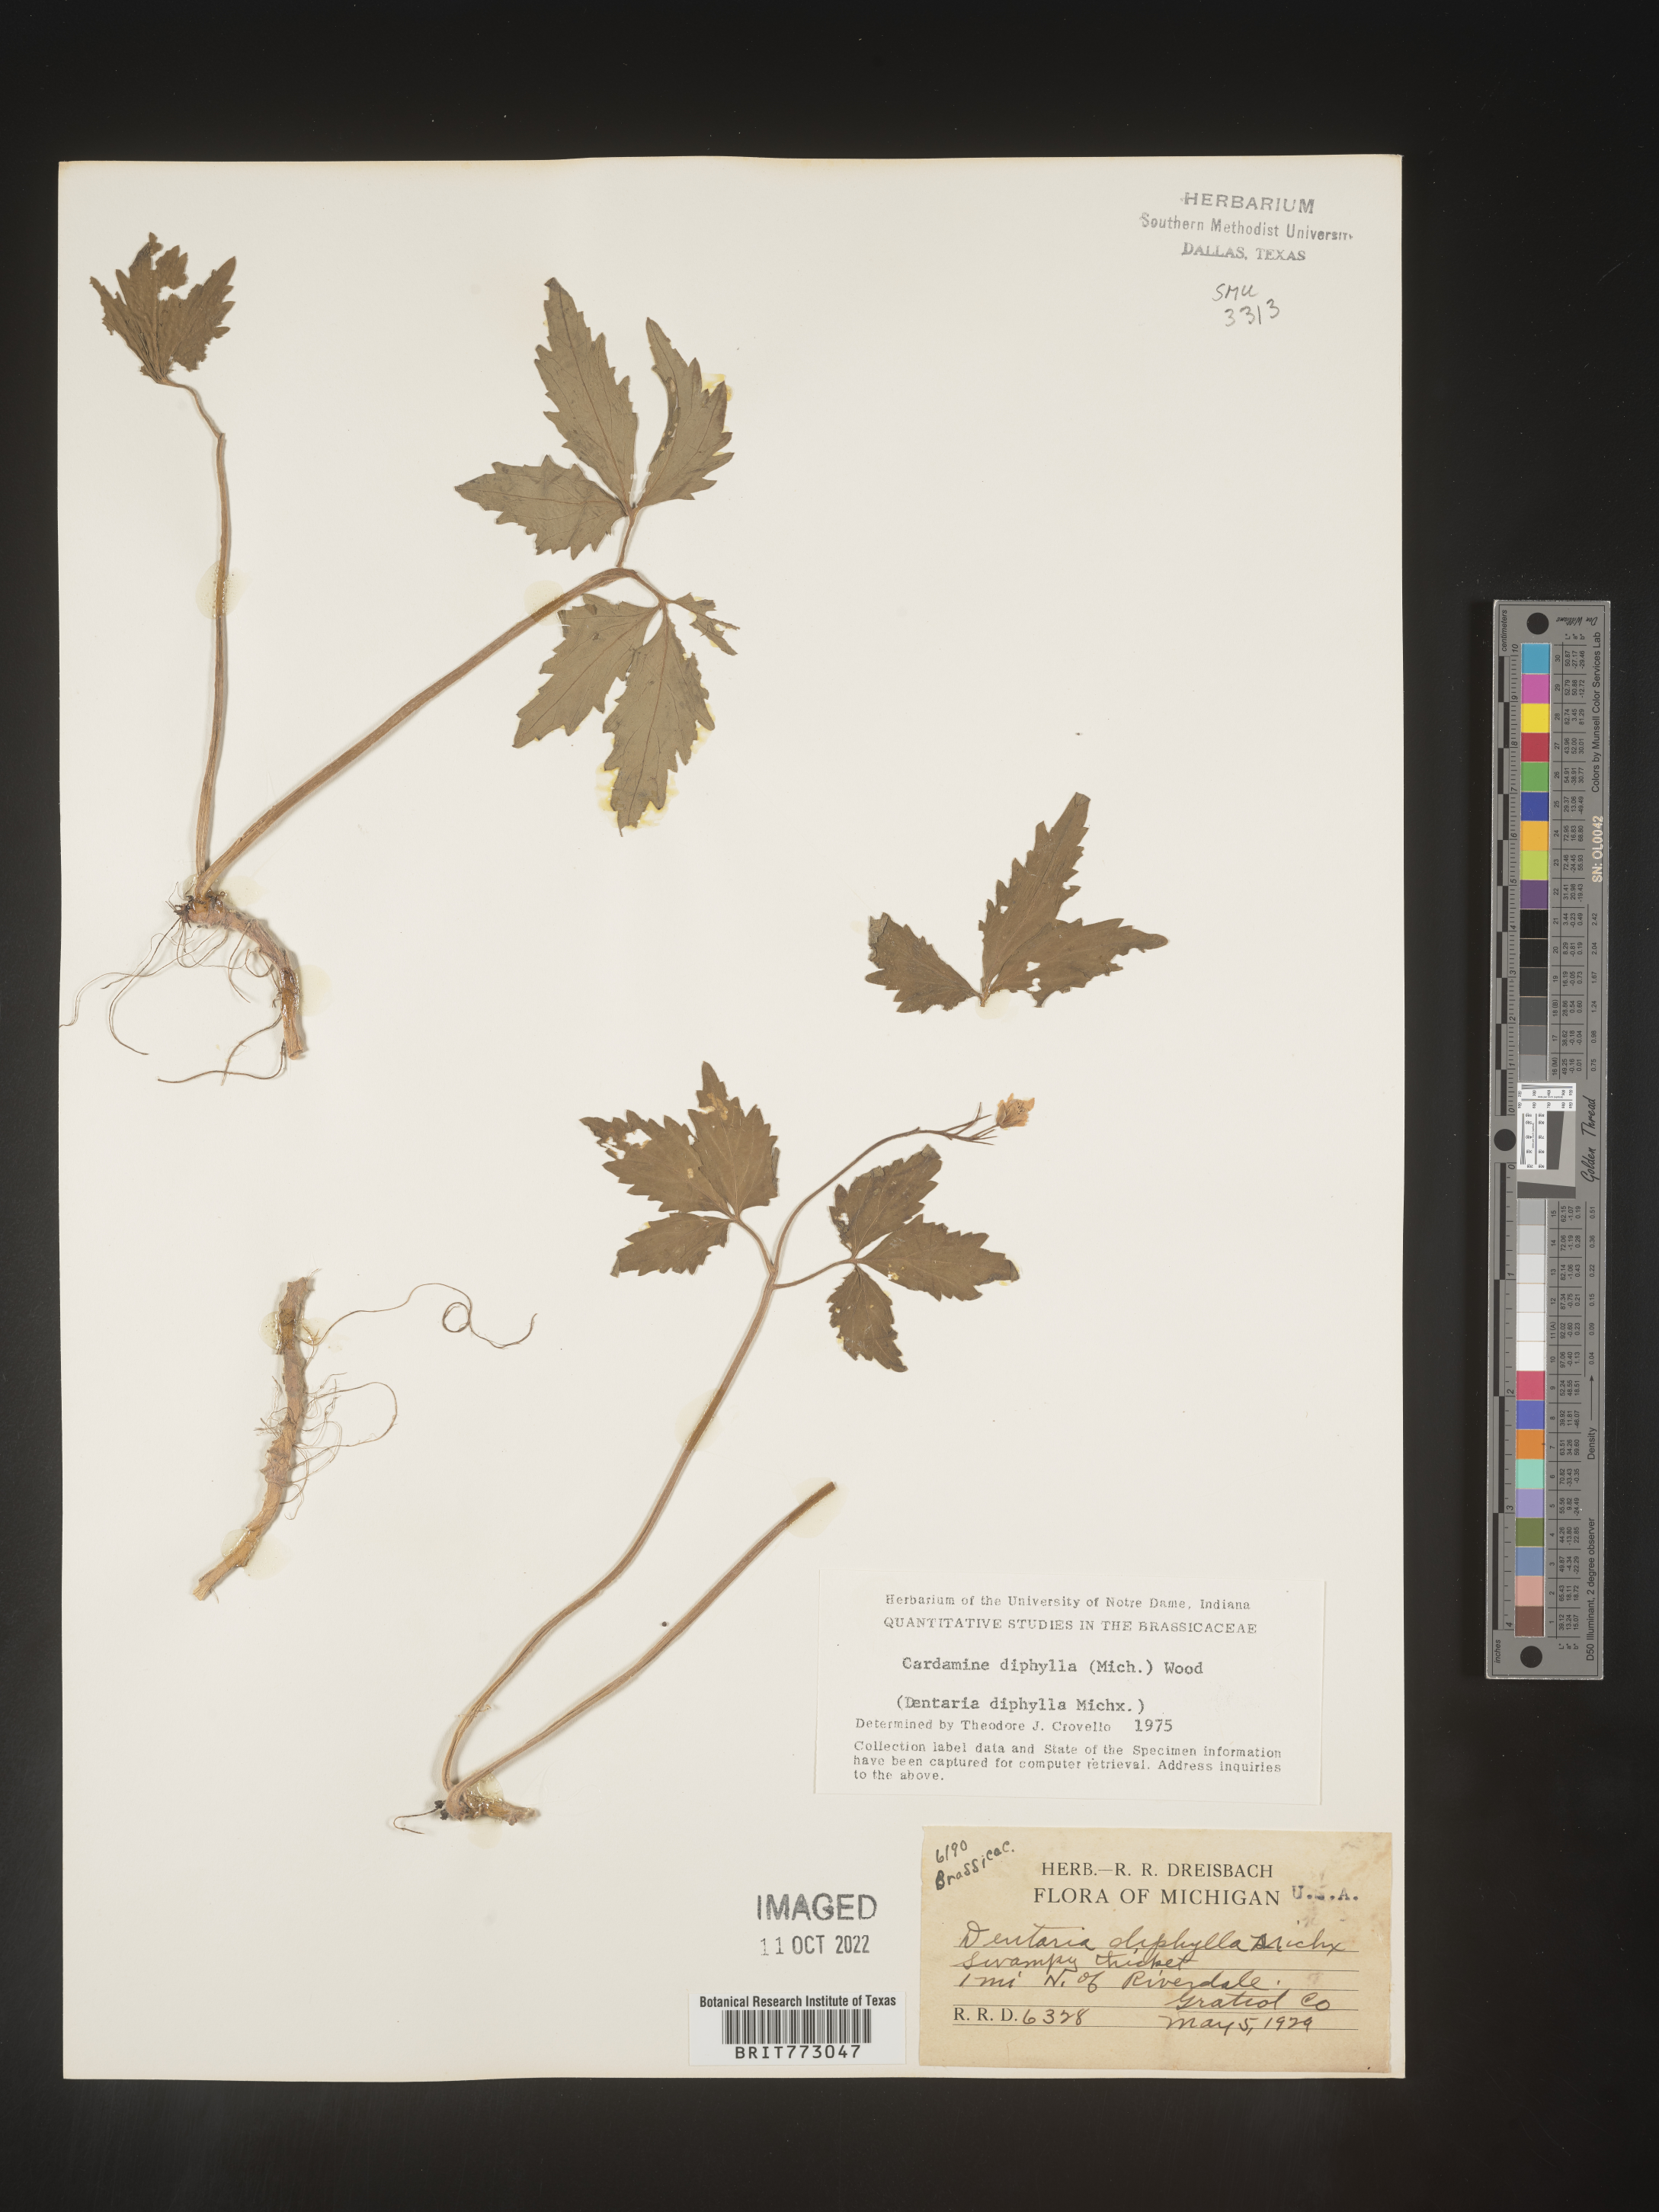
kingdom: Plantae
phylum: Tracheophyta
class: Magnoliopsida
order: Brassicales
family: Brassicaceae
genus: Cardamine
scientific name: Cardamine diphylla
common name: Broad-leaved toothwort
